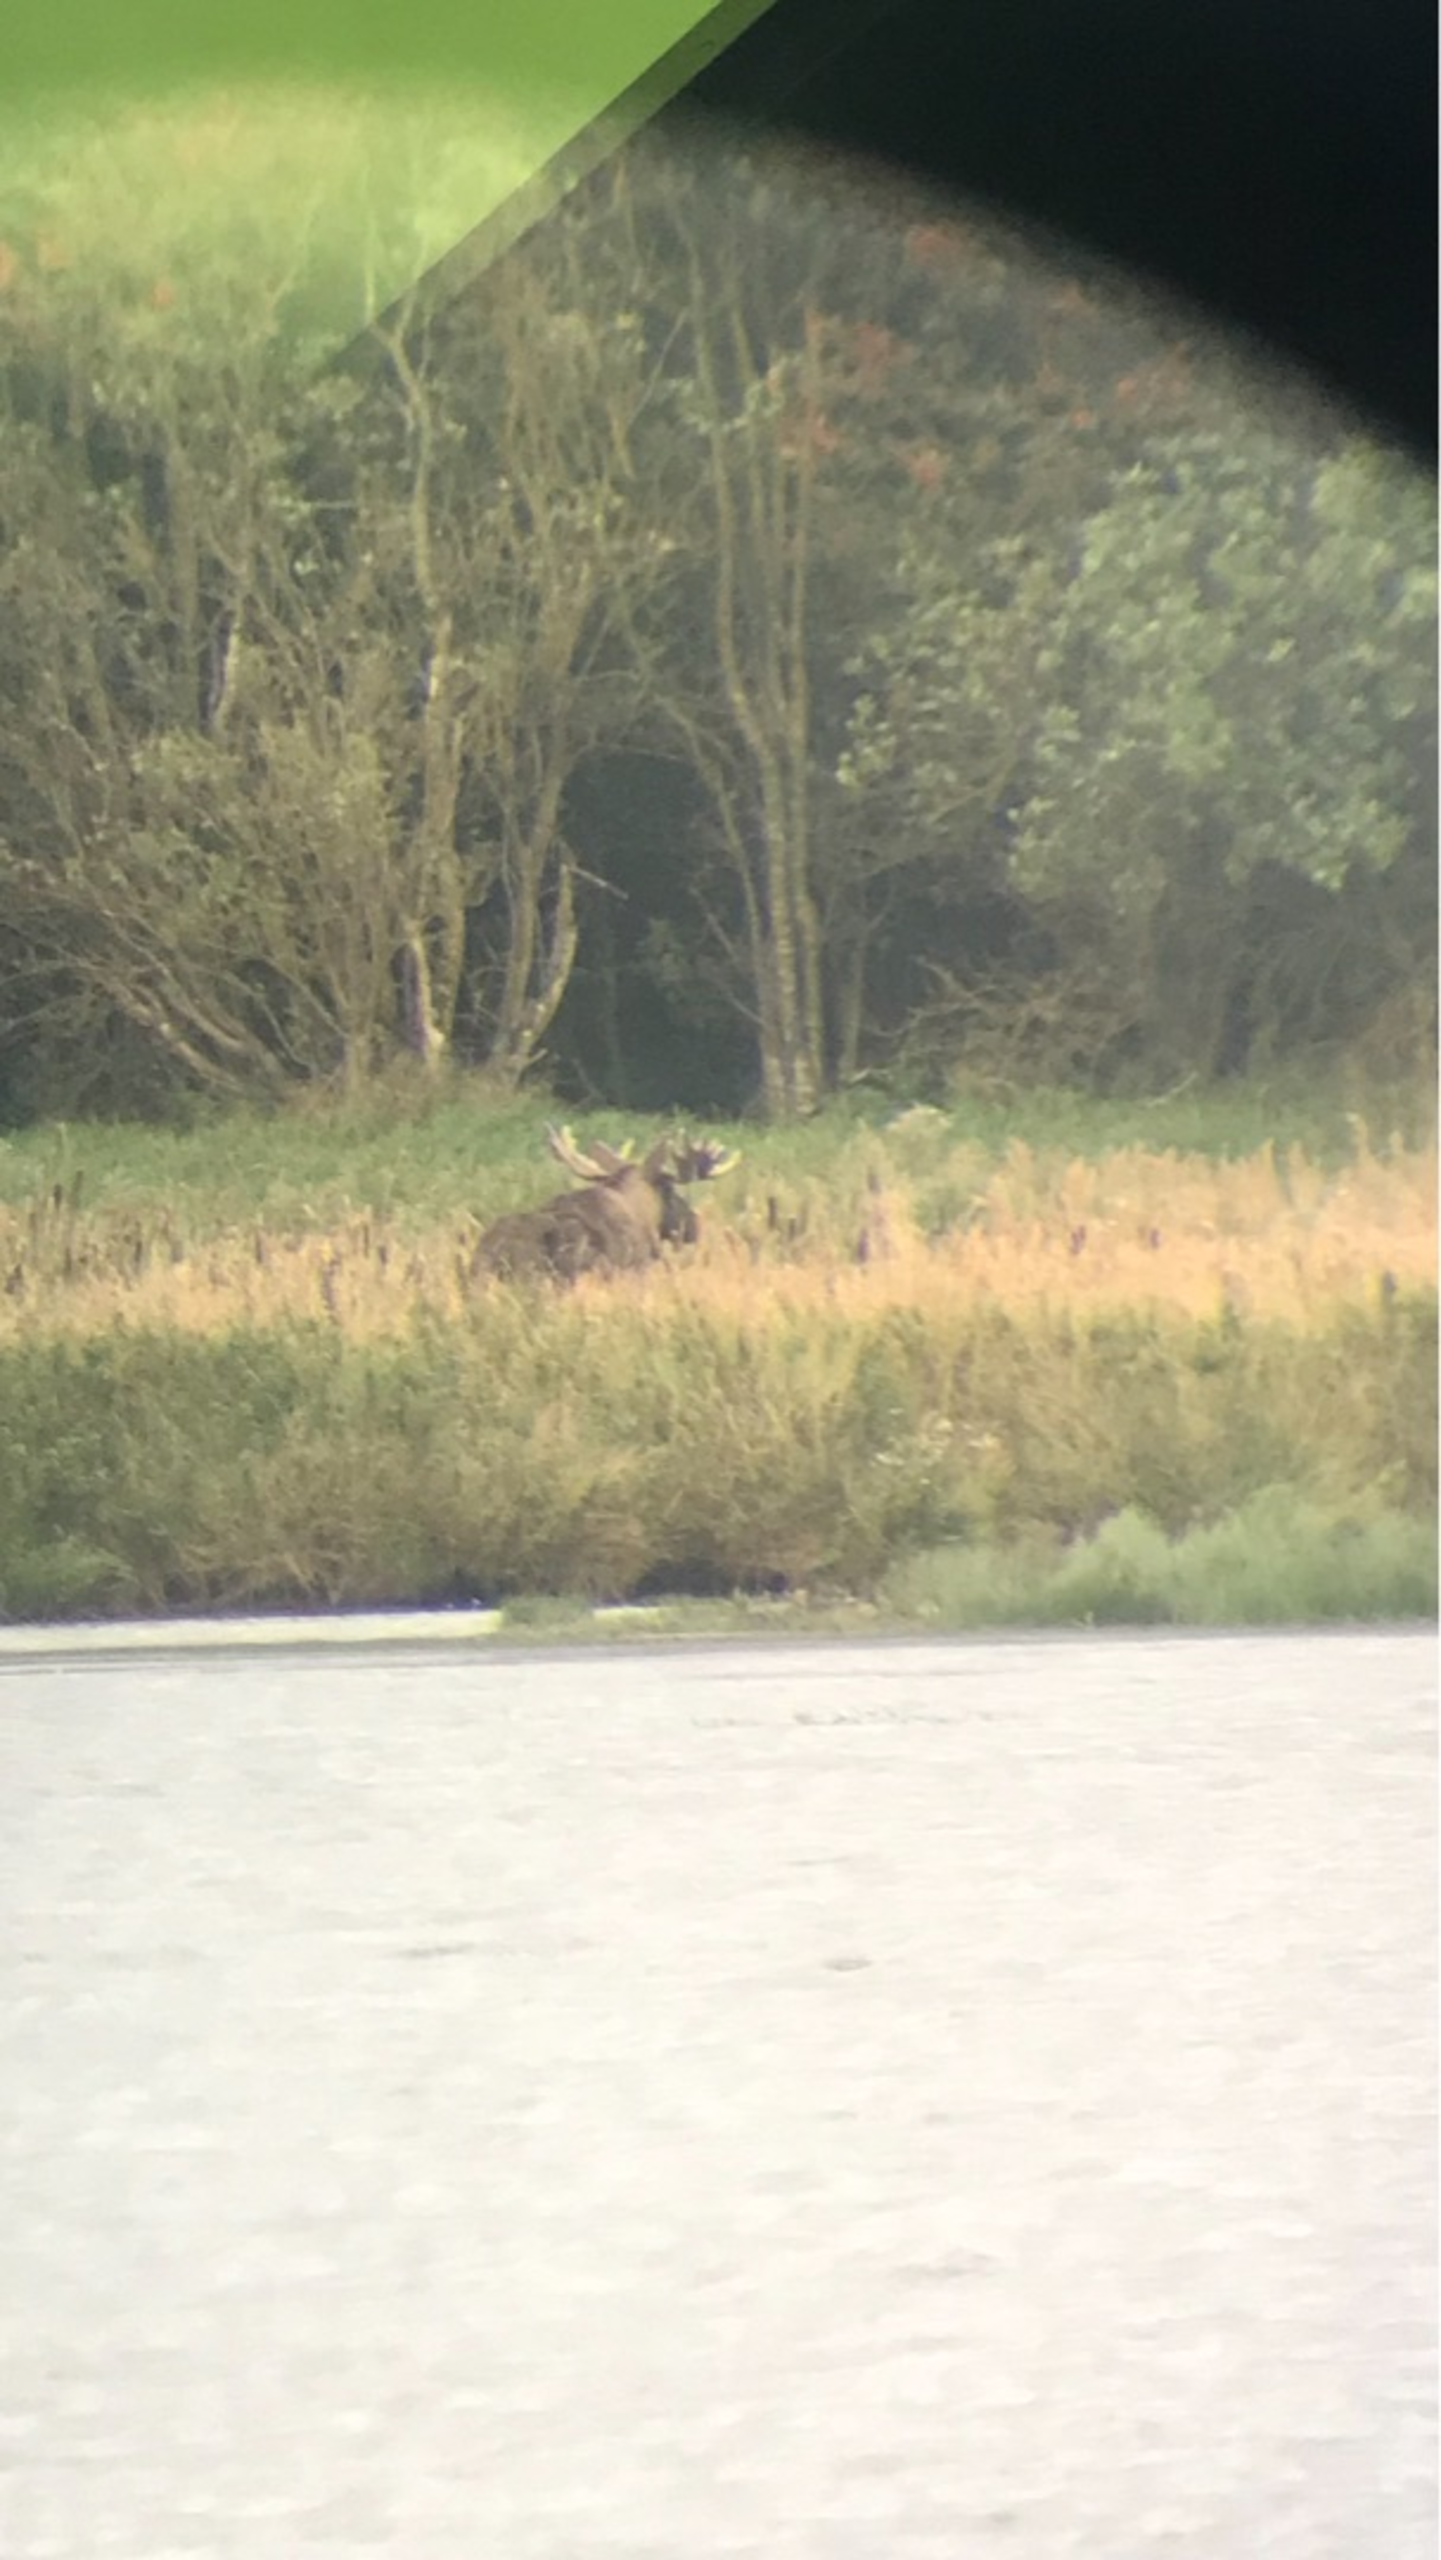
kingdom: Animalia
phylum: Chordata
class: Mammalia
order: Artiodactyla
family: Cervidae
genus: Alces
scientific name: Alces alces
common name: Elg
